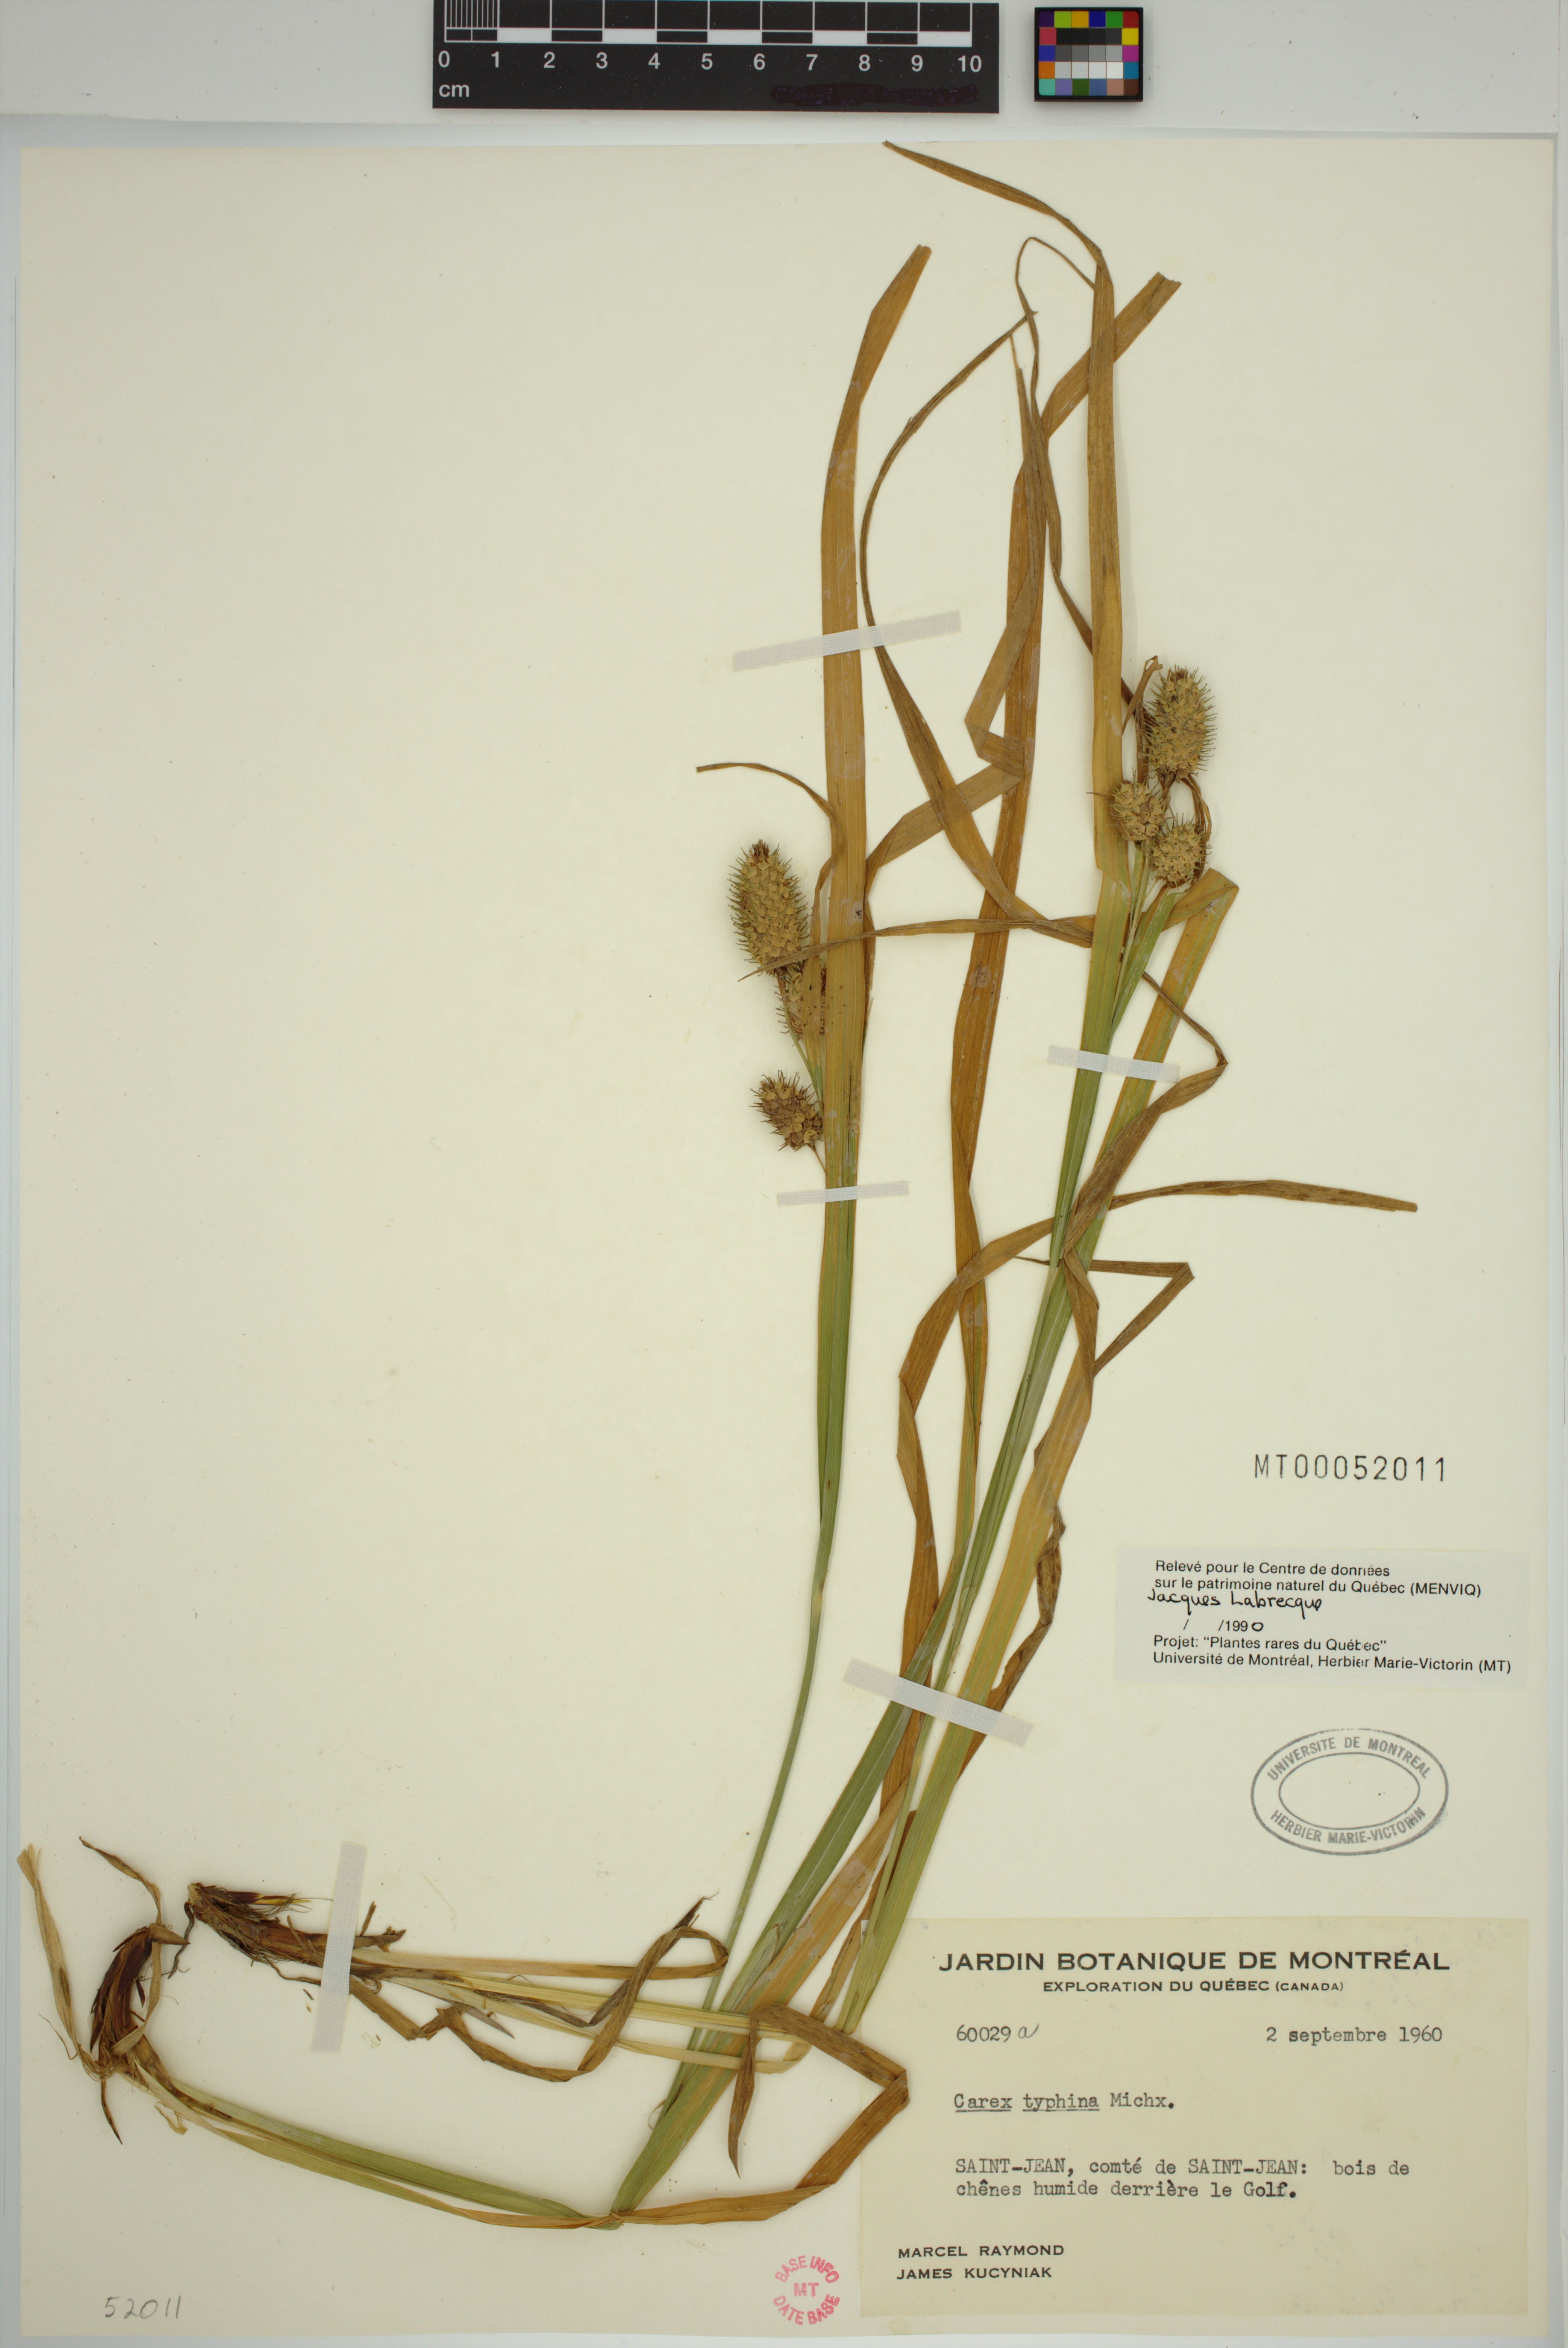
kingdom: Plantae
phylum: Tracheophyta
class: Liliopsida
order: Poales
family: Cyperaceae
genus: Carex
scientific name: Carex typhina
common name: Cattail sedge
